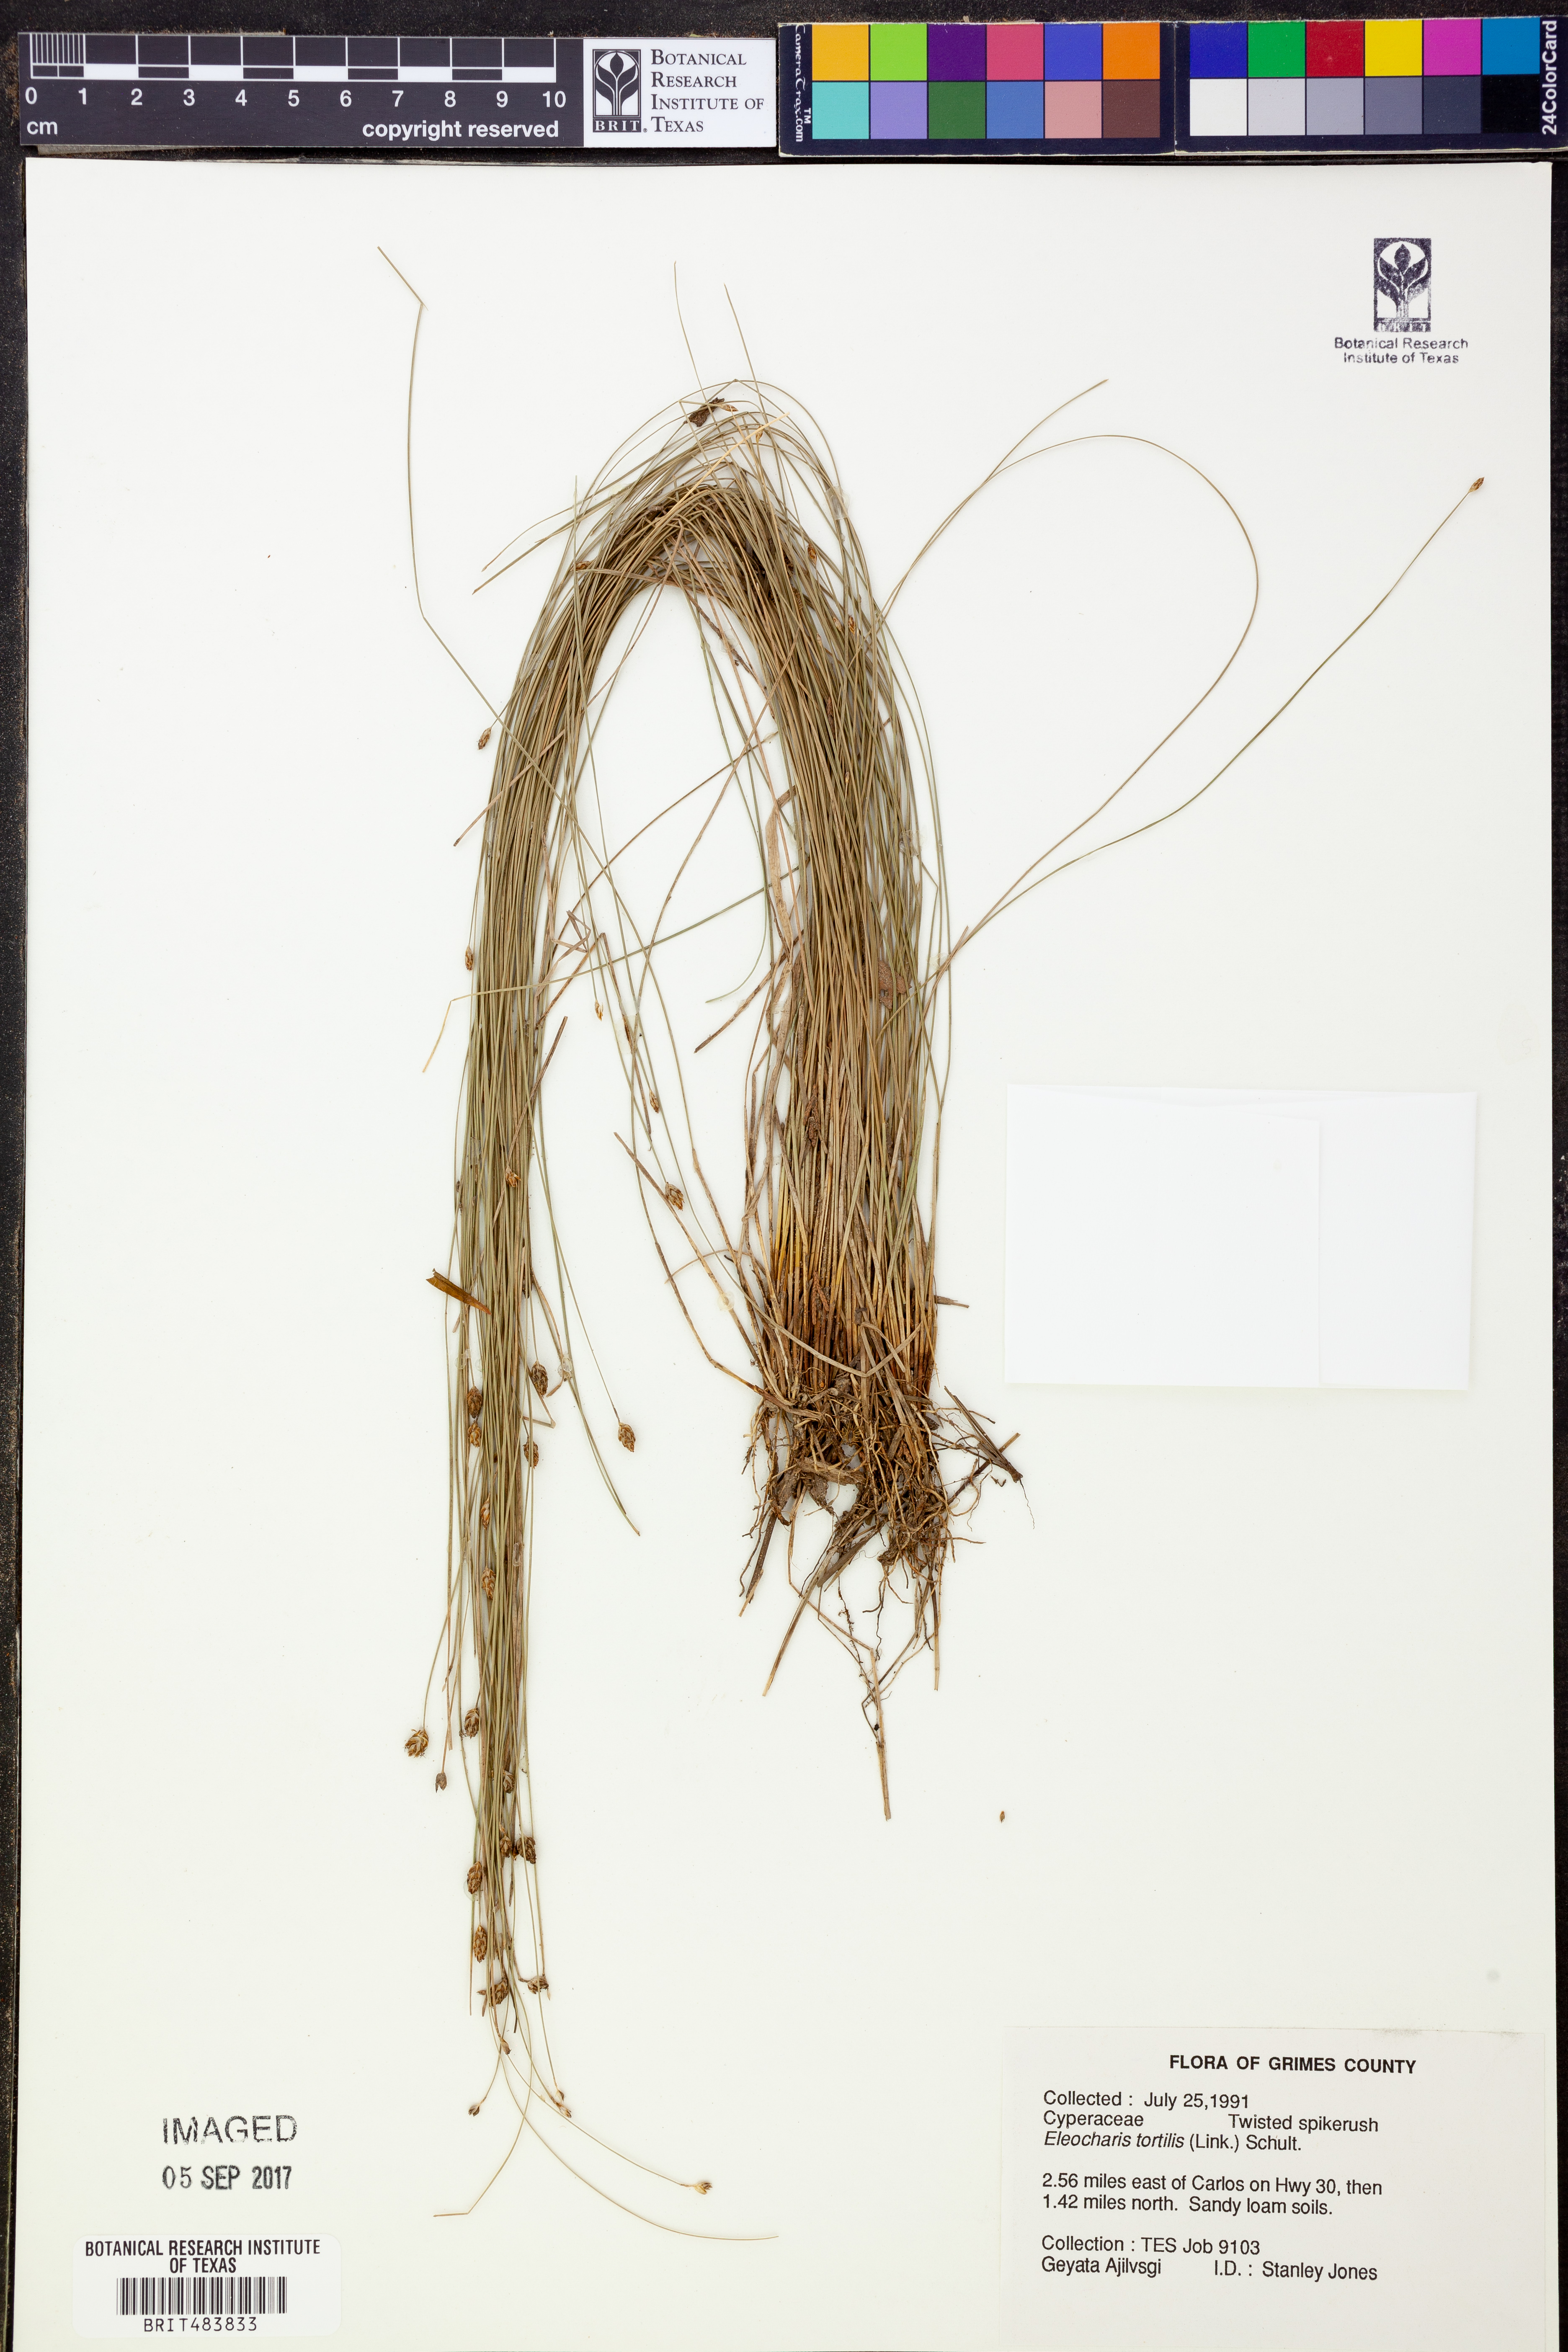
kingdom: Plantae
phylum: Tracheophyta
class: Liliopsida
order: Poales
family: Cyperaceae
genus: Eleocharis
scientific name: Eleocharis tortilis
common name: Twisted spike sedge
